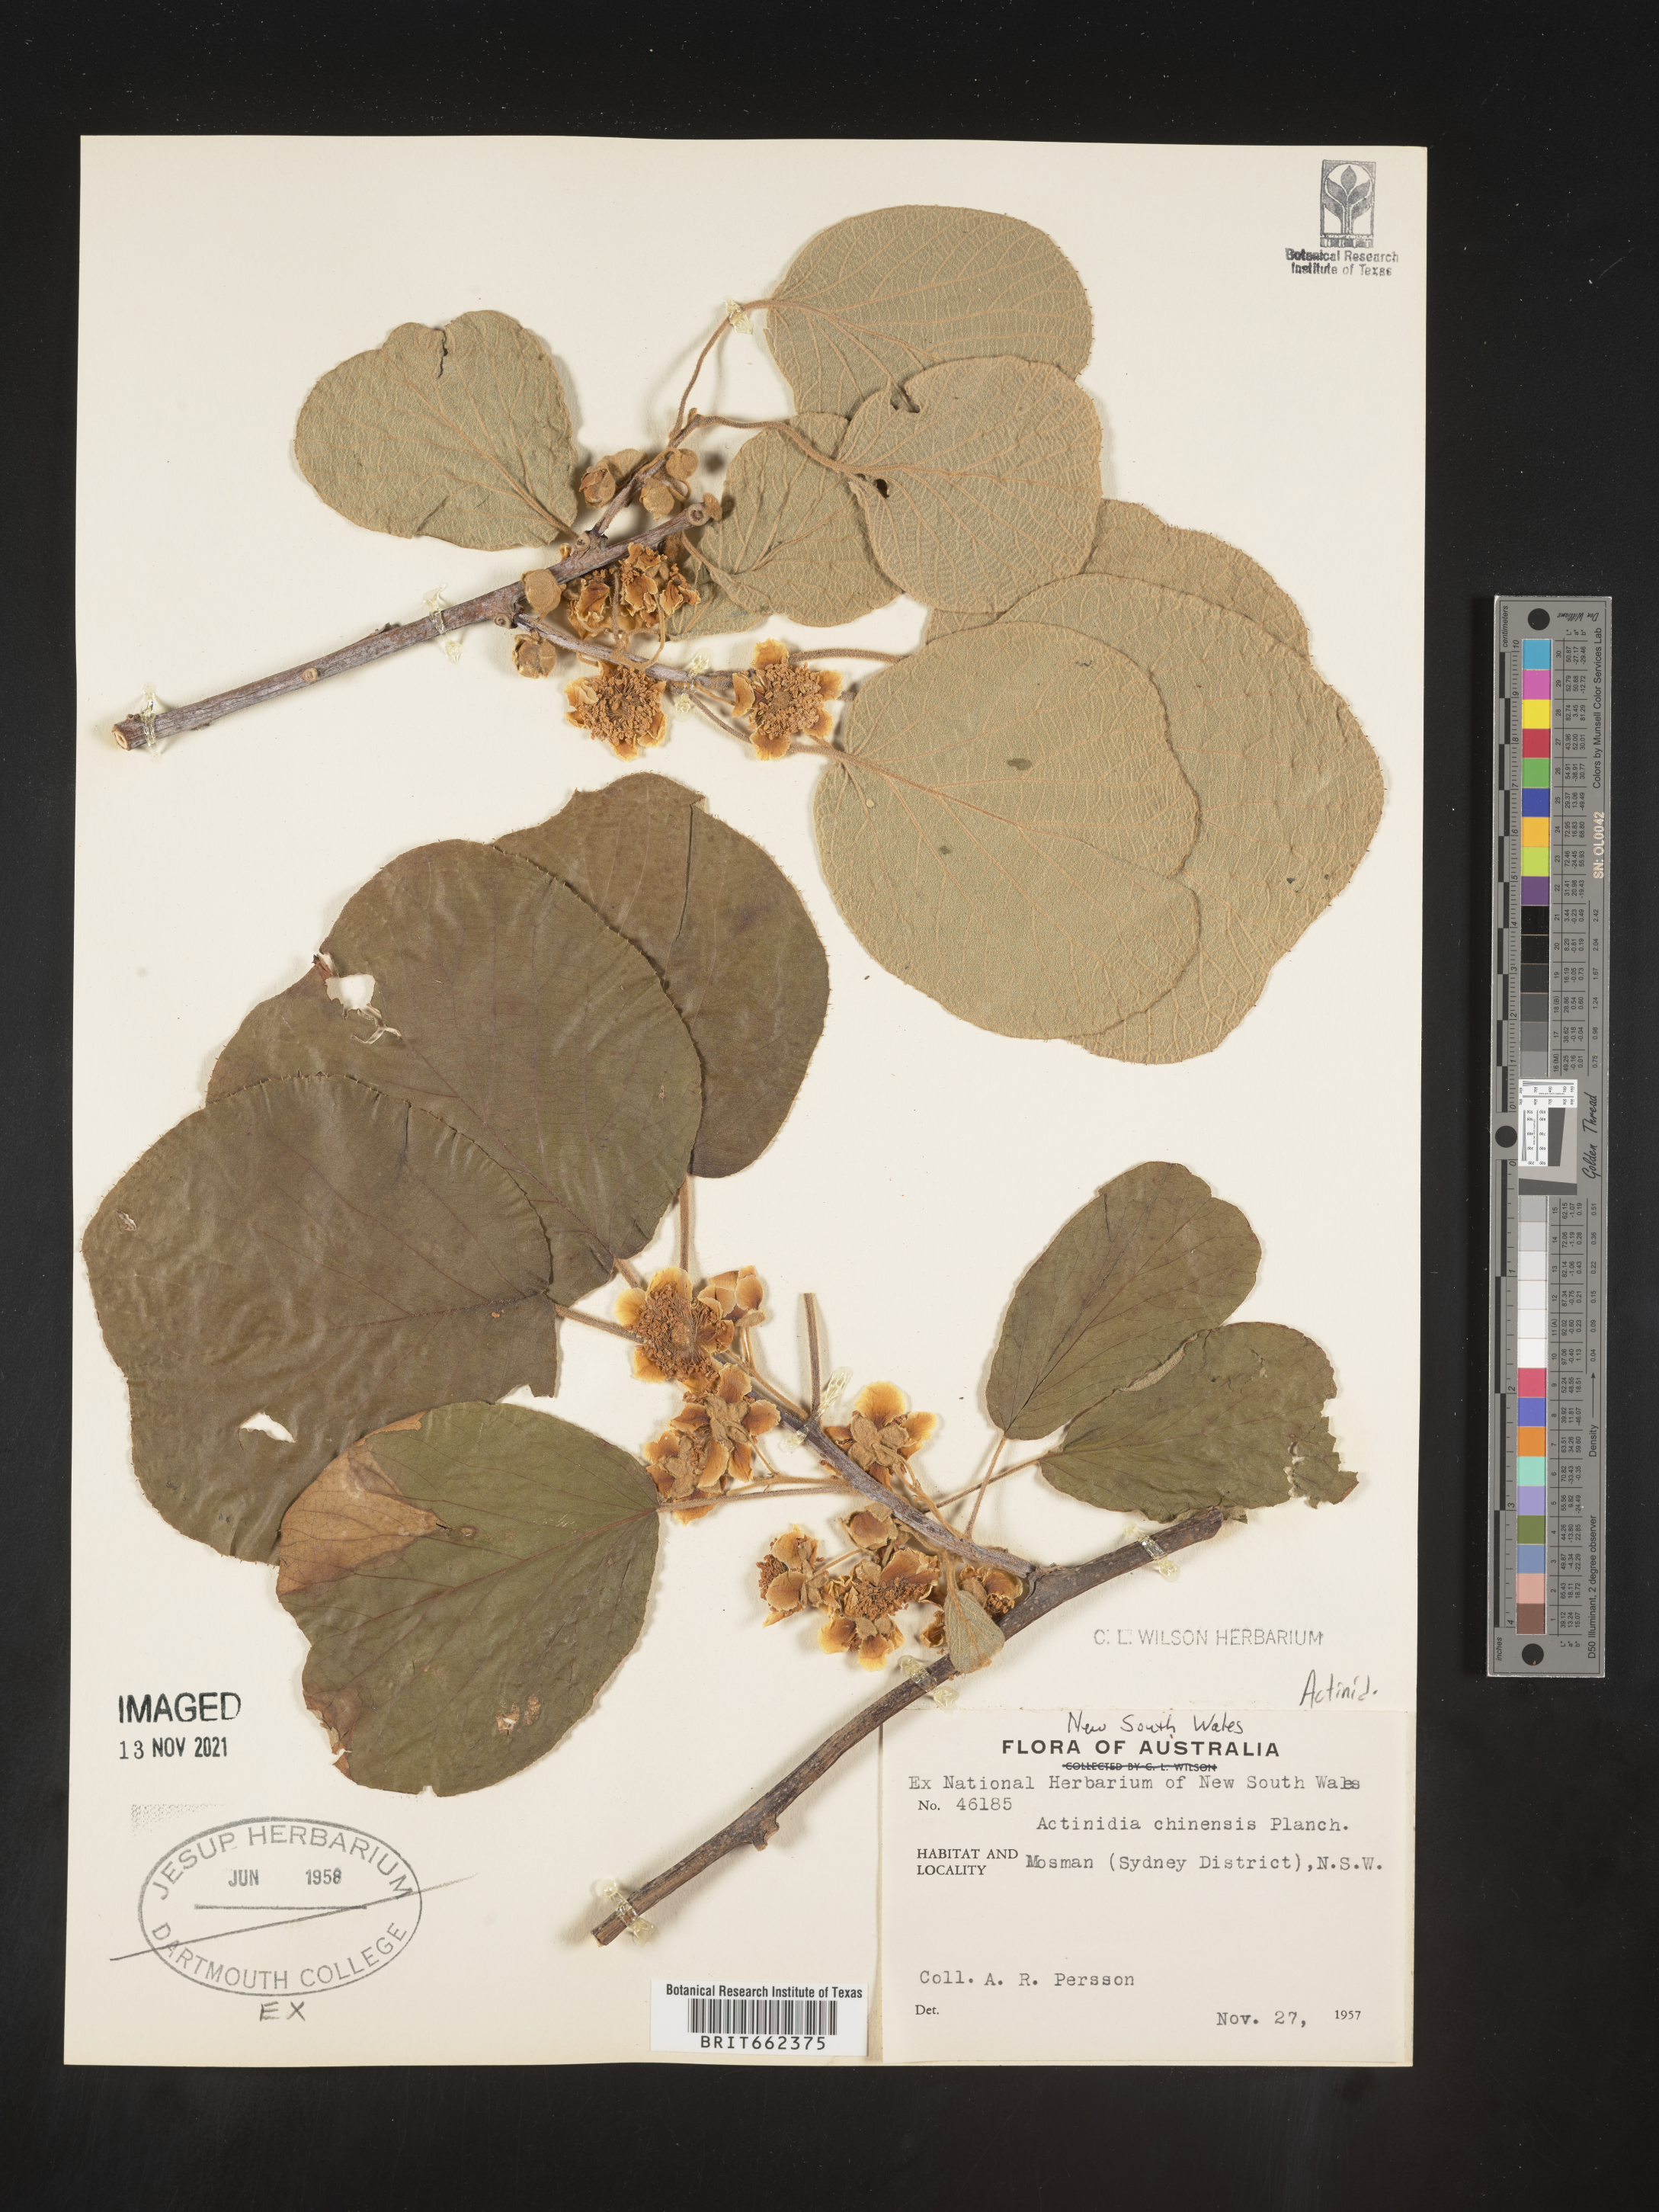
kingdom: Plantae
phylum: Tracheophyta
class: Magnoliopsida
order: Ericales
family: Actinidiaceae
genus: Actinidia
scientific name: Actinidia
